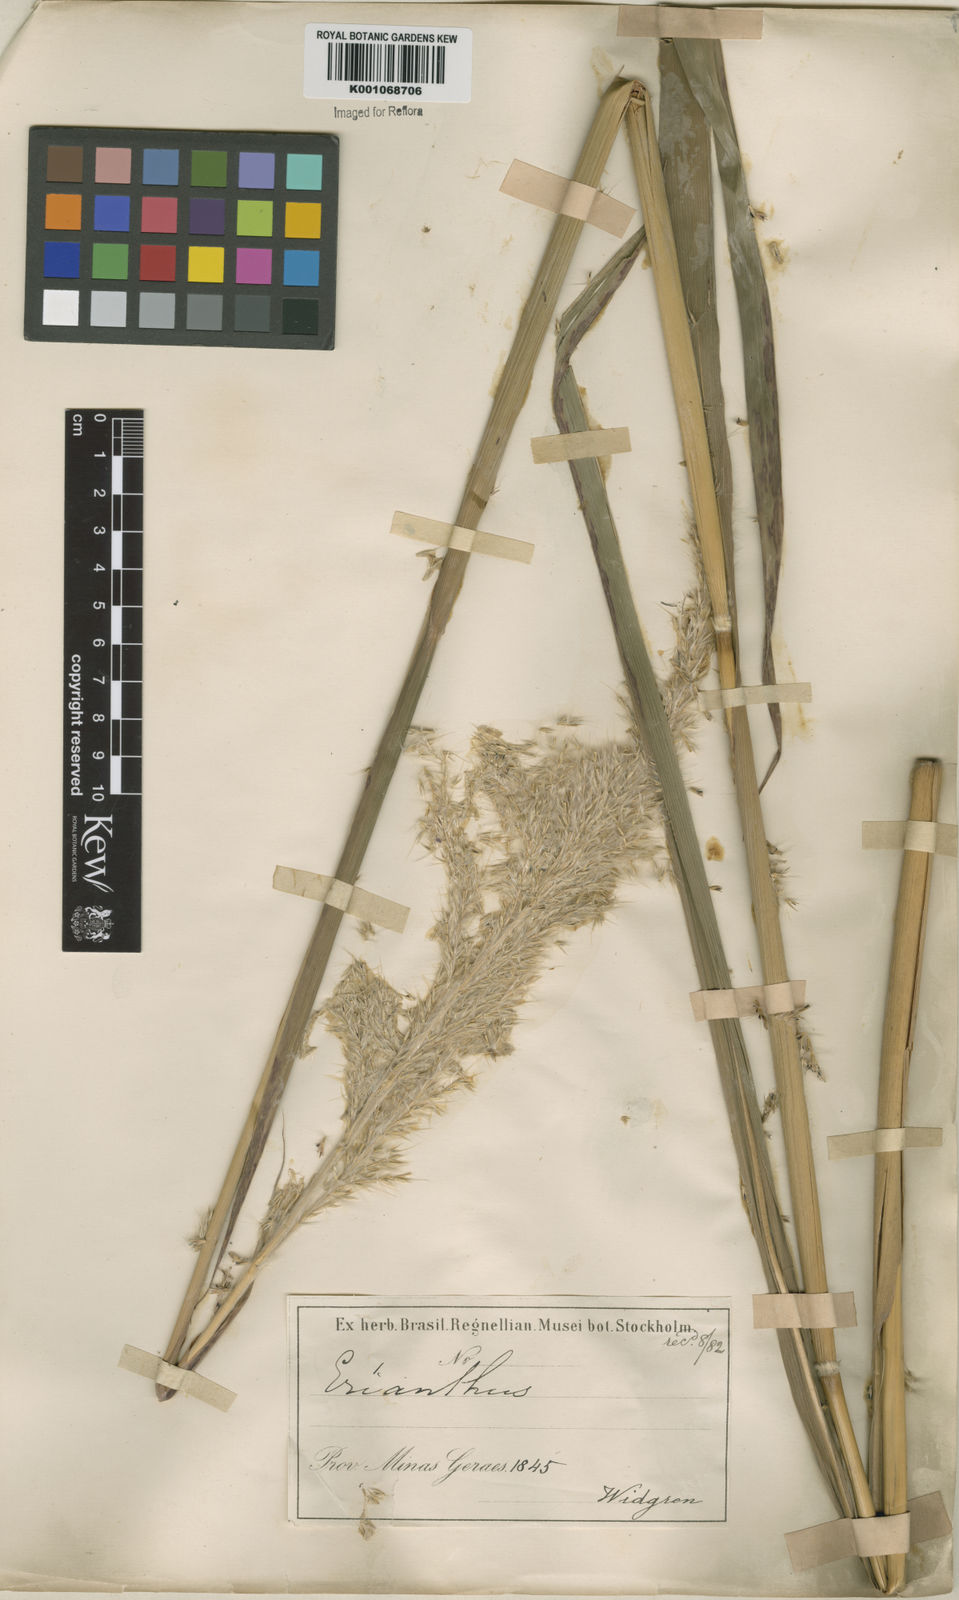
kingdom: Plantae
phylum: Tracheophyta
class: Liliopsida
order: Poales
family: Poaceae
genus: Erianthus
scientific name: Erianthus asper
